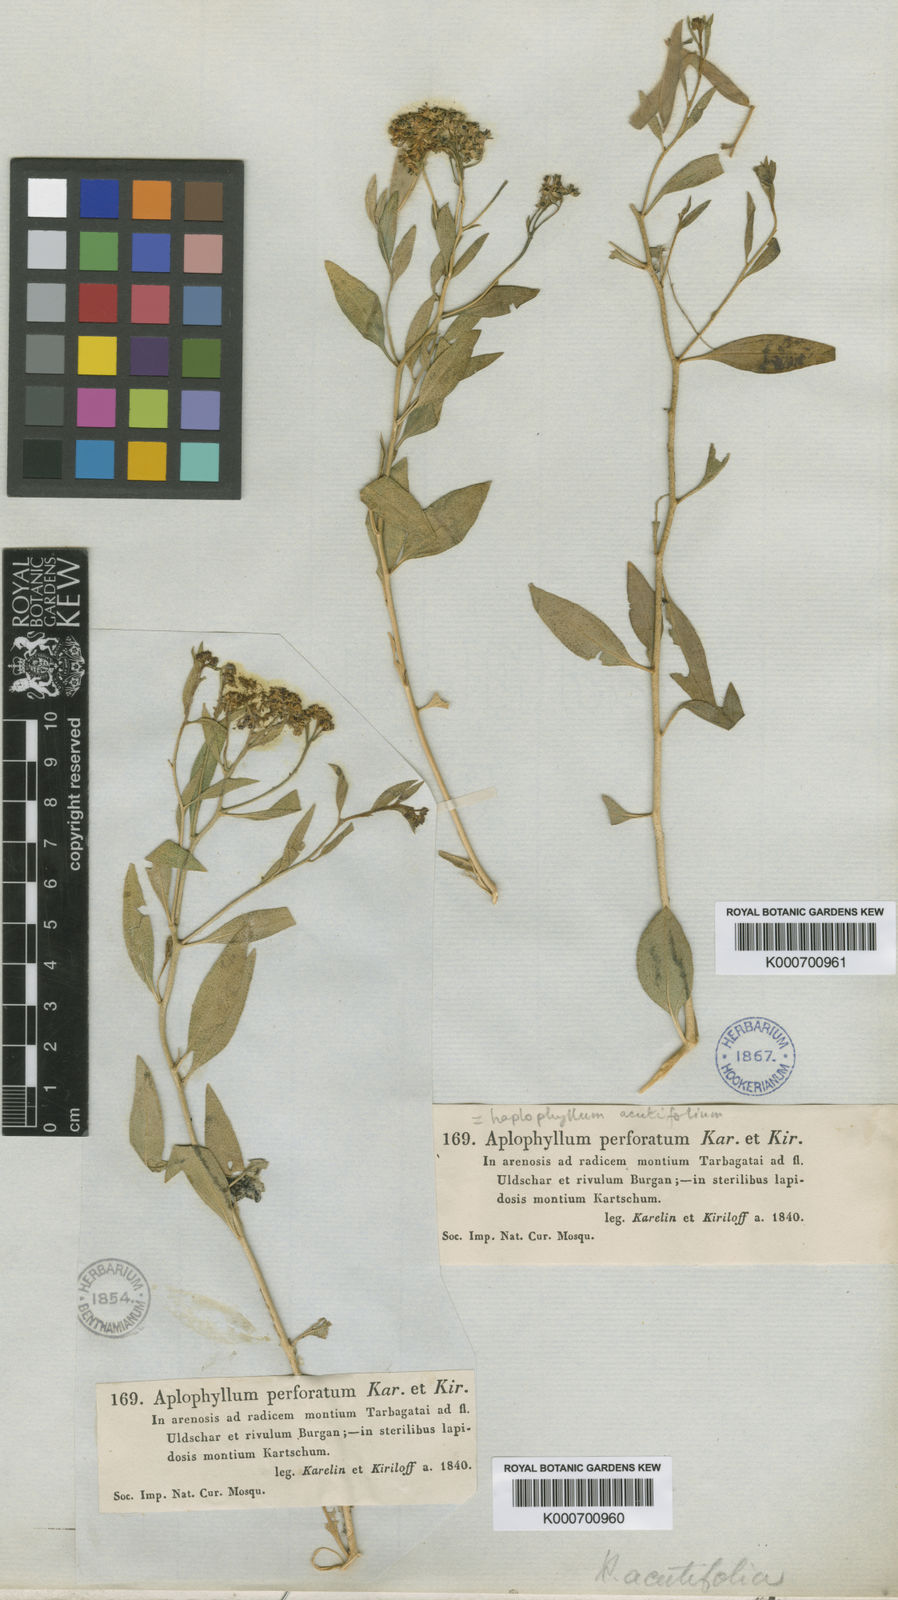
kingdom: Plantae
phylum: Tracheophyta
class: Magnoliopsida
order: Sapindales
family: Rutaceae
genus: Haplophyllum
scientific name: Haplophyllum acutifolium
